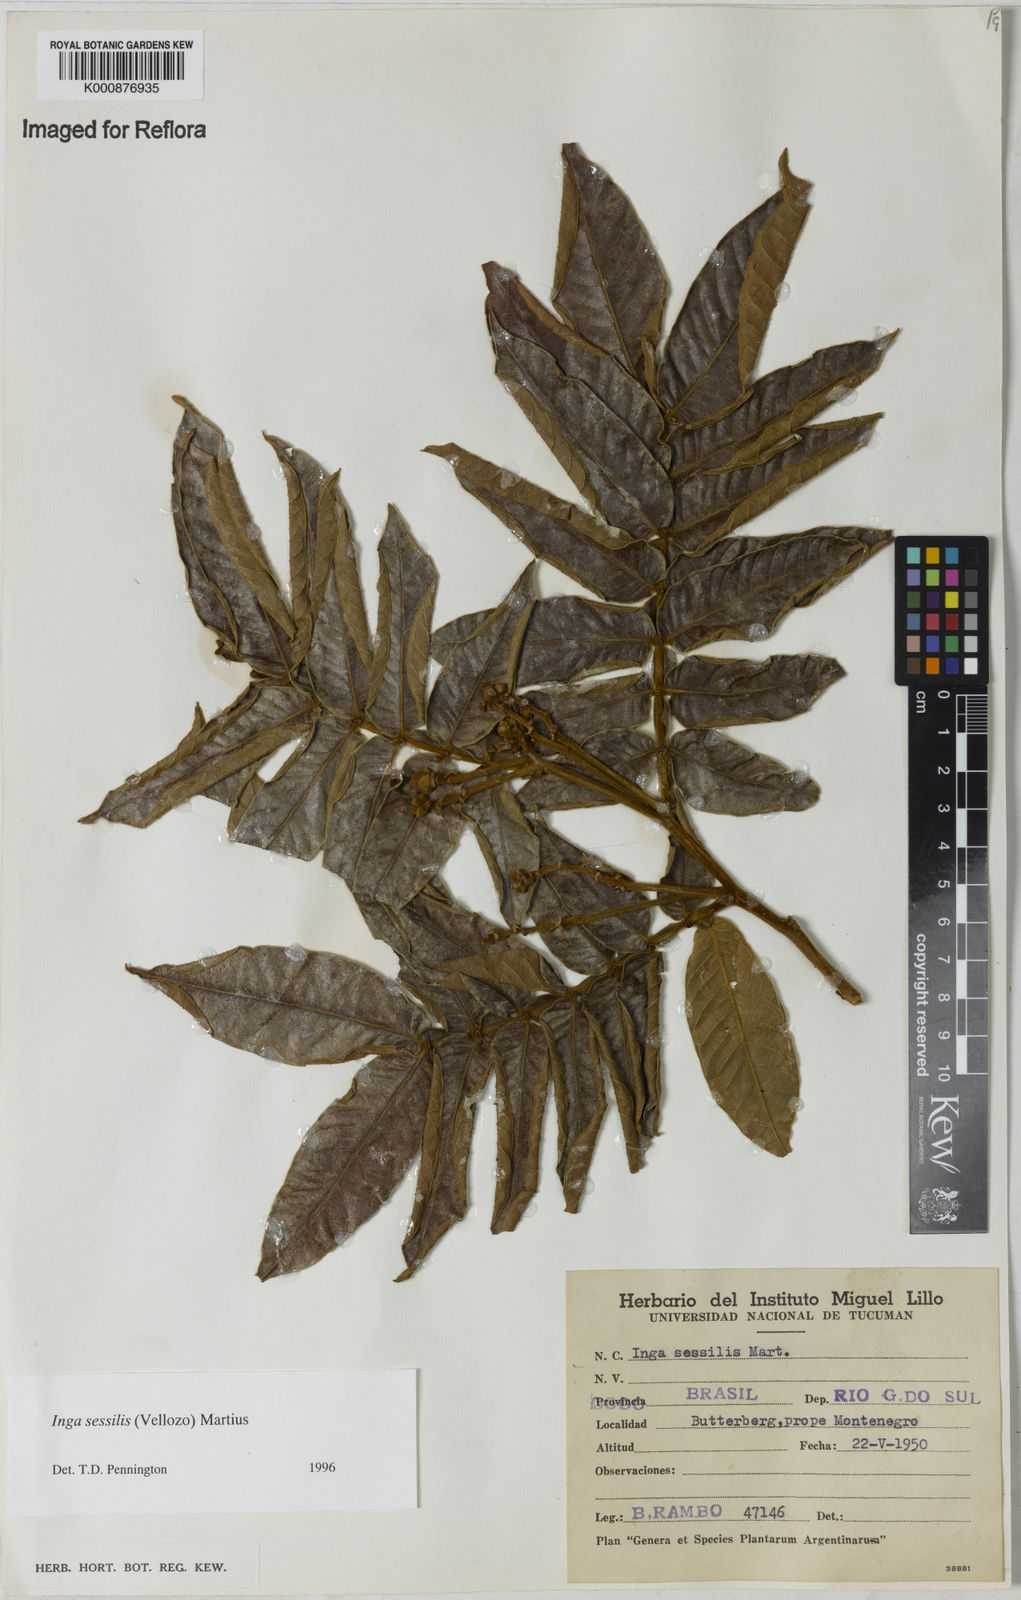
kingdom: Plantae
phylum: Tracheophyta
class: Magnoliopsida
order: Fabales
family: Fabaceae
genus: Inga
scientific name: Inga sessilis
